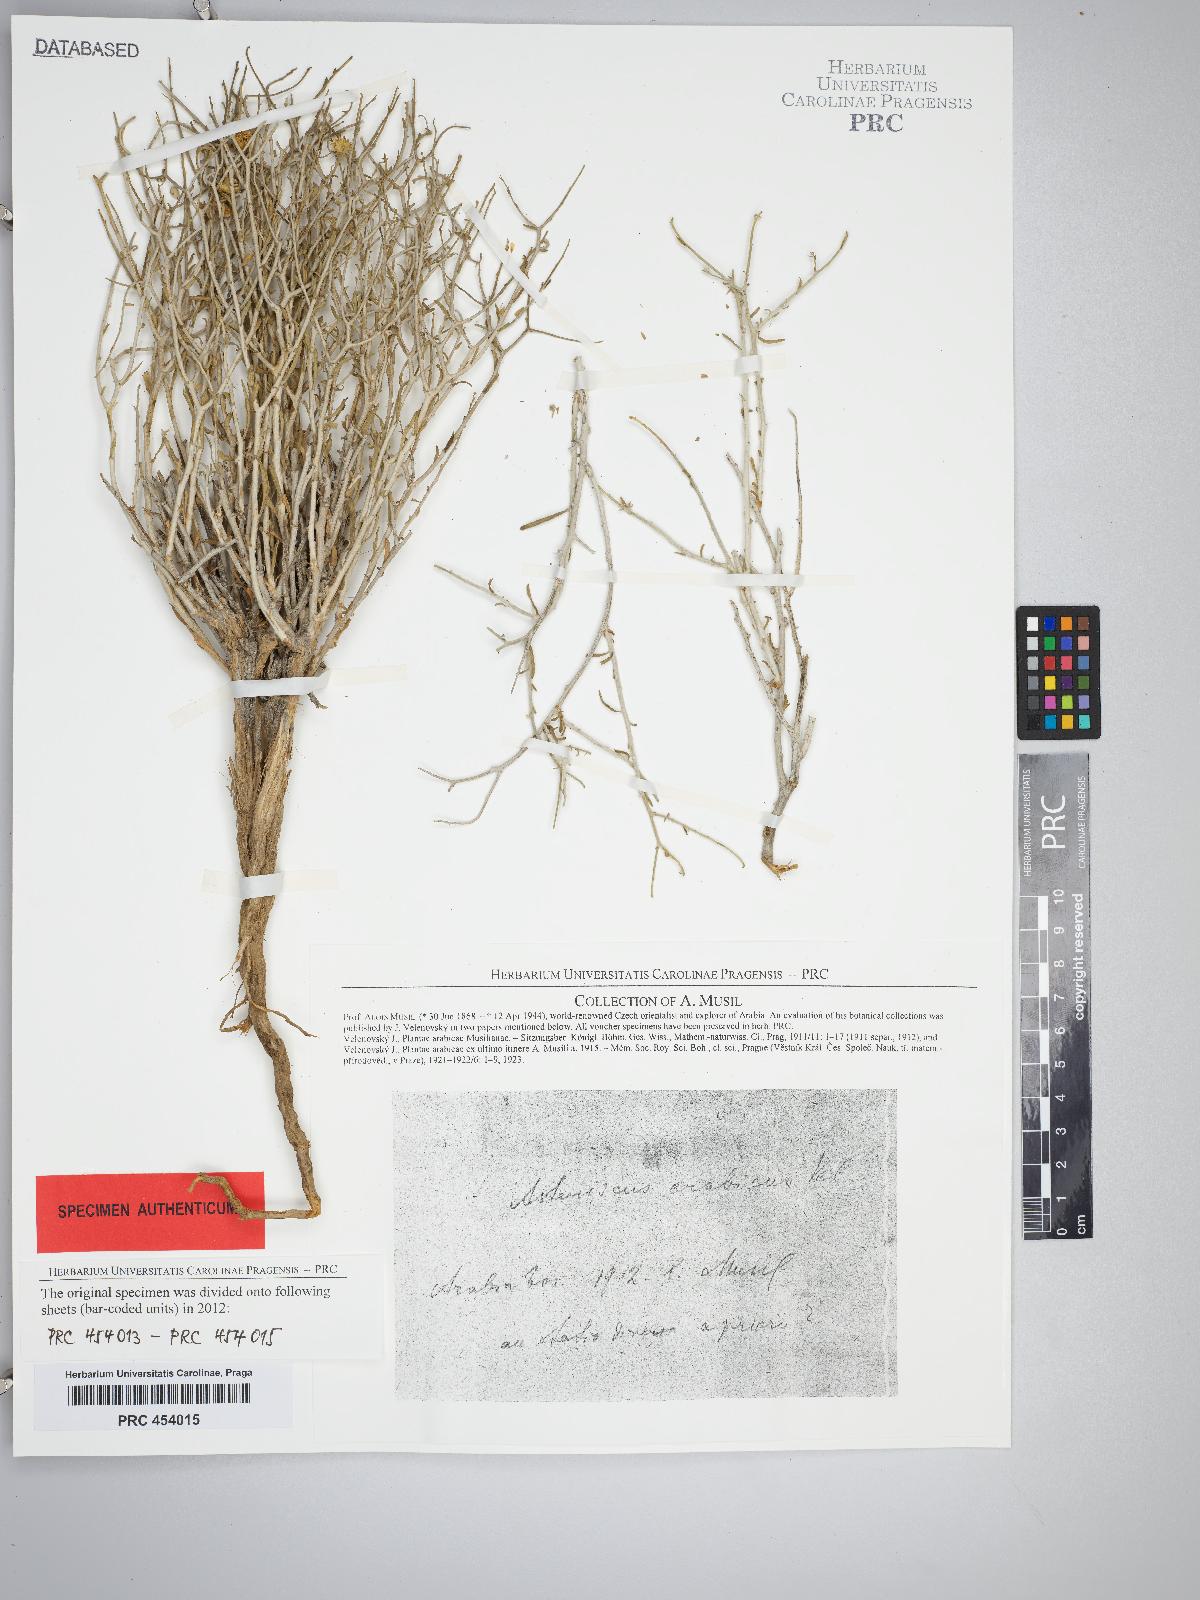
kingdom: Plantae
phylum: Tracheophyta
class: Magnoliopsida
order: Asterales
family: Asteraceae
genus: Rhanterium
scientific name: Rhanterium epapposum
